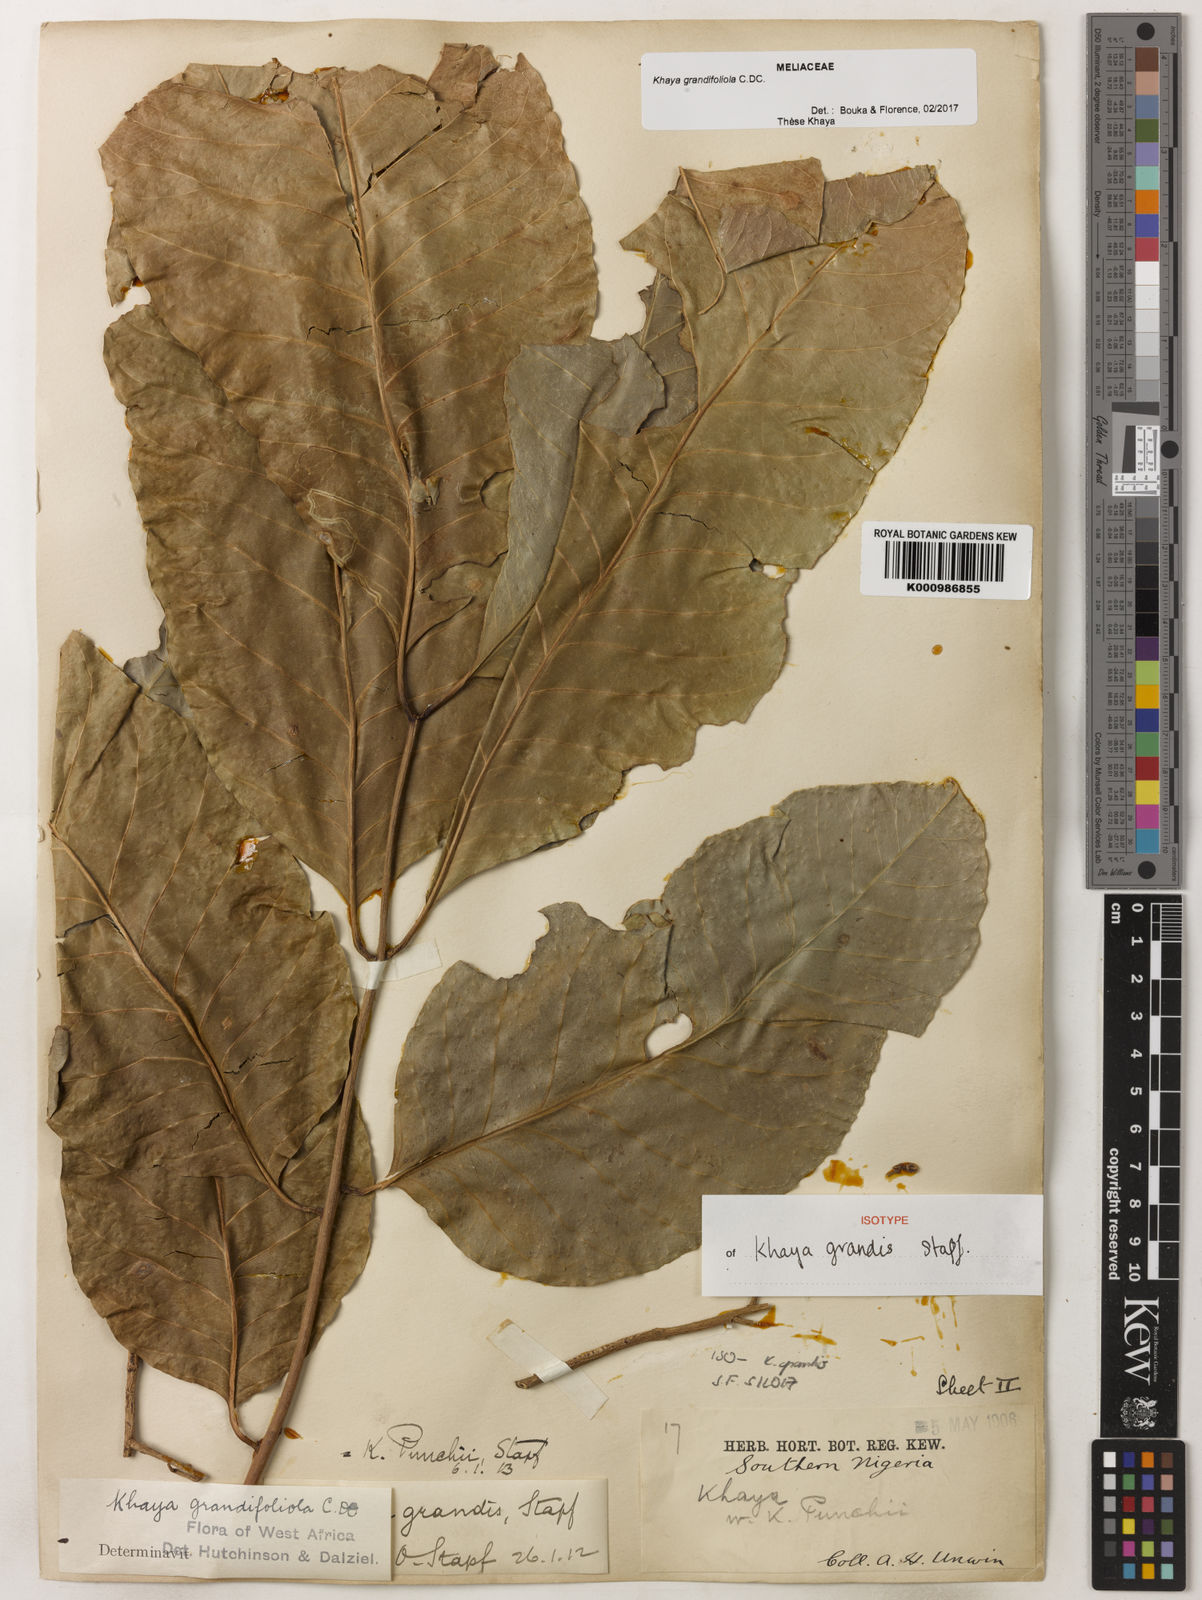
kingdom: Plantae
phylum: Tracheophyta
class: Magnoliopsida
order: Sapindales
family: Meliaceae
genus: Khaya
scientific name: Khaya
